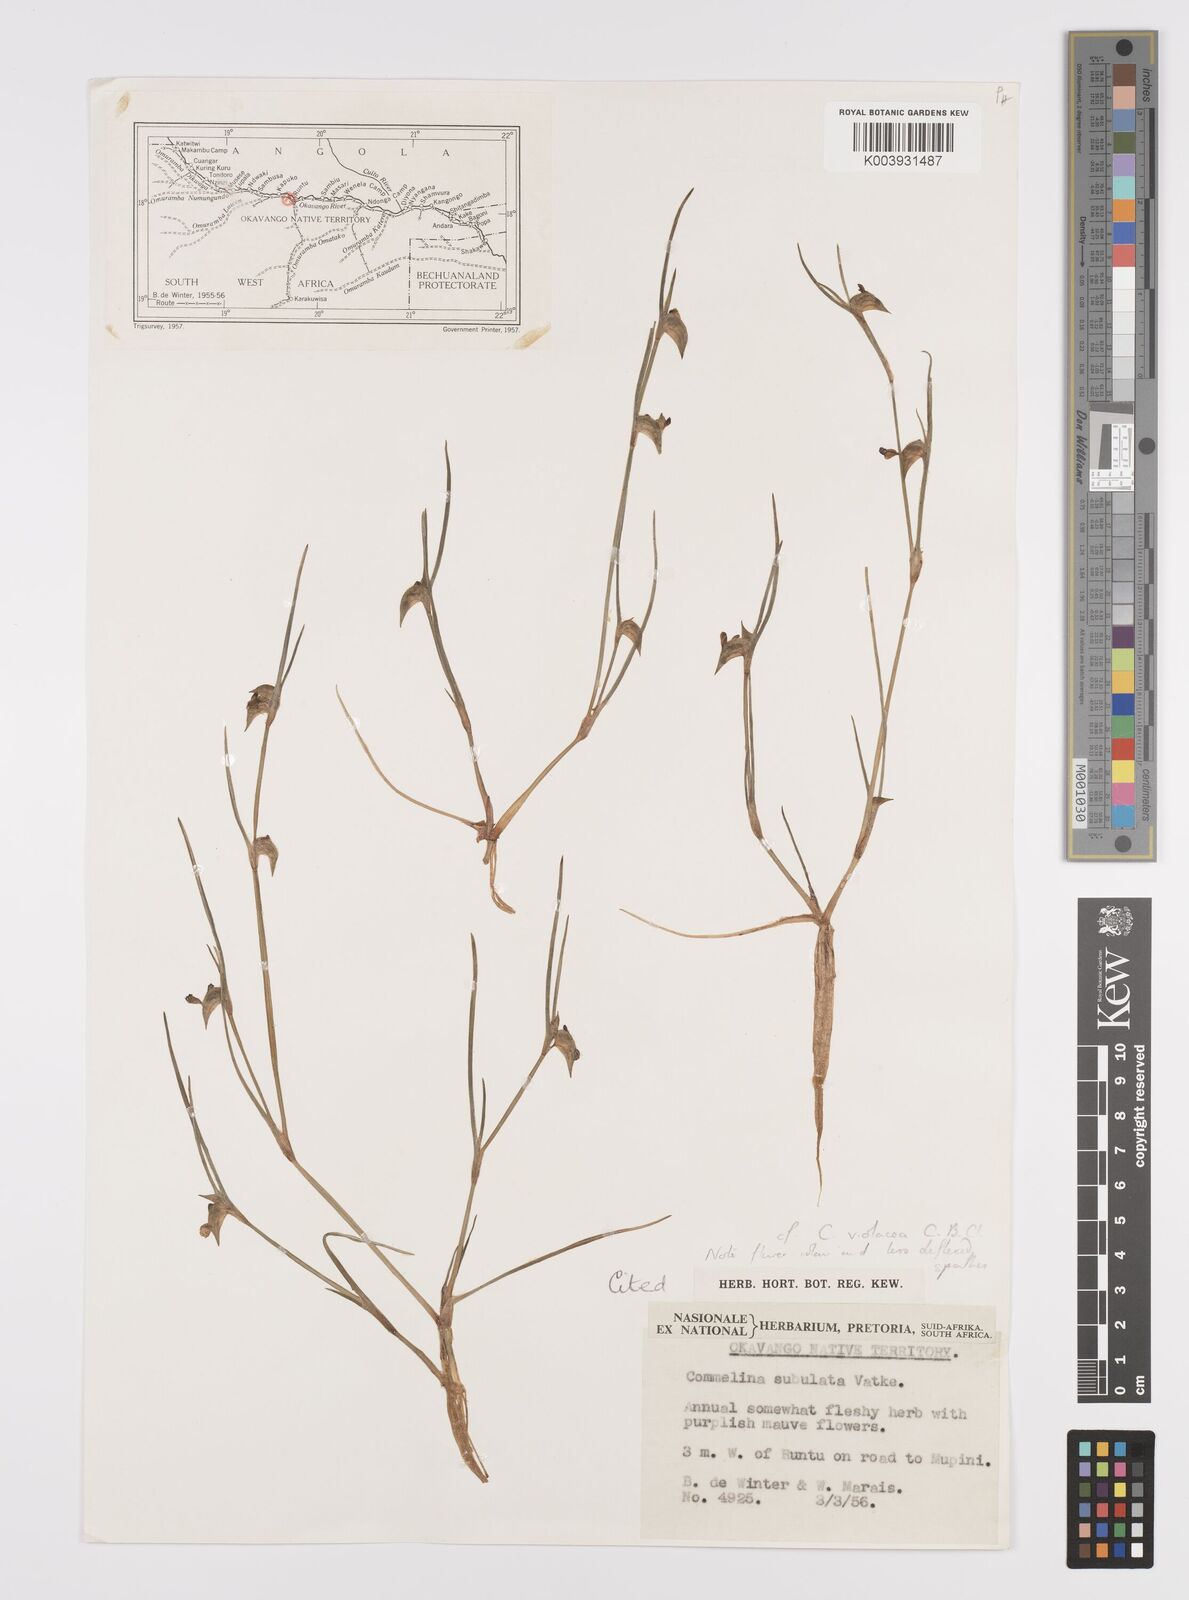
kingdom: Plantae
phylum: Tracheophyta
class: Liliopsida
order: Commelinales
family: Commelinaceae
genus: Commelina
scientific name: Commelina subulata
